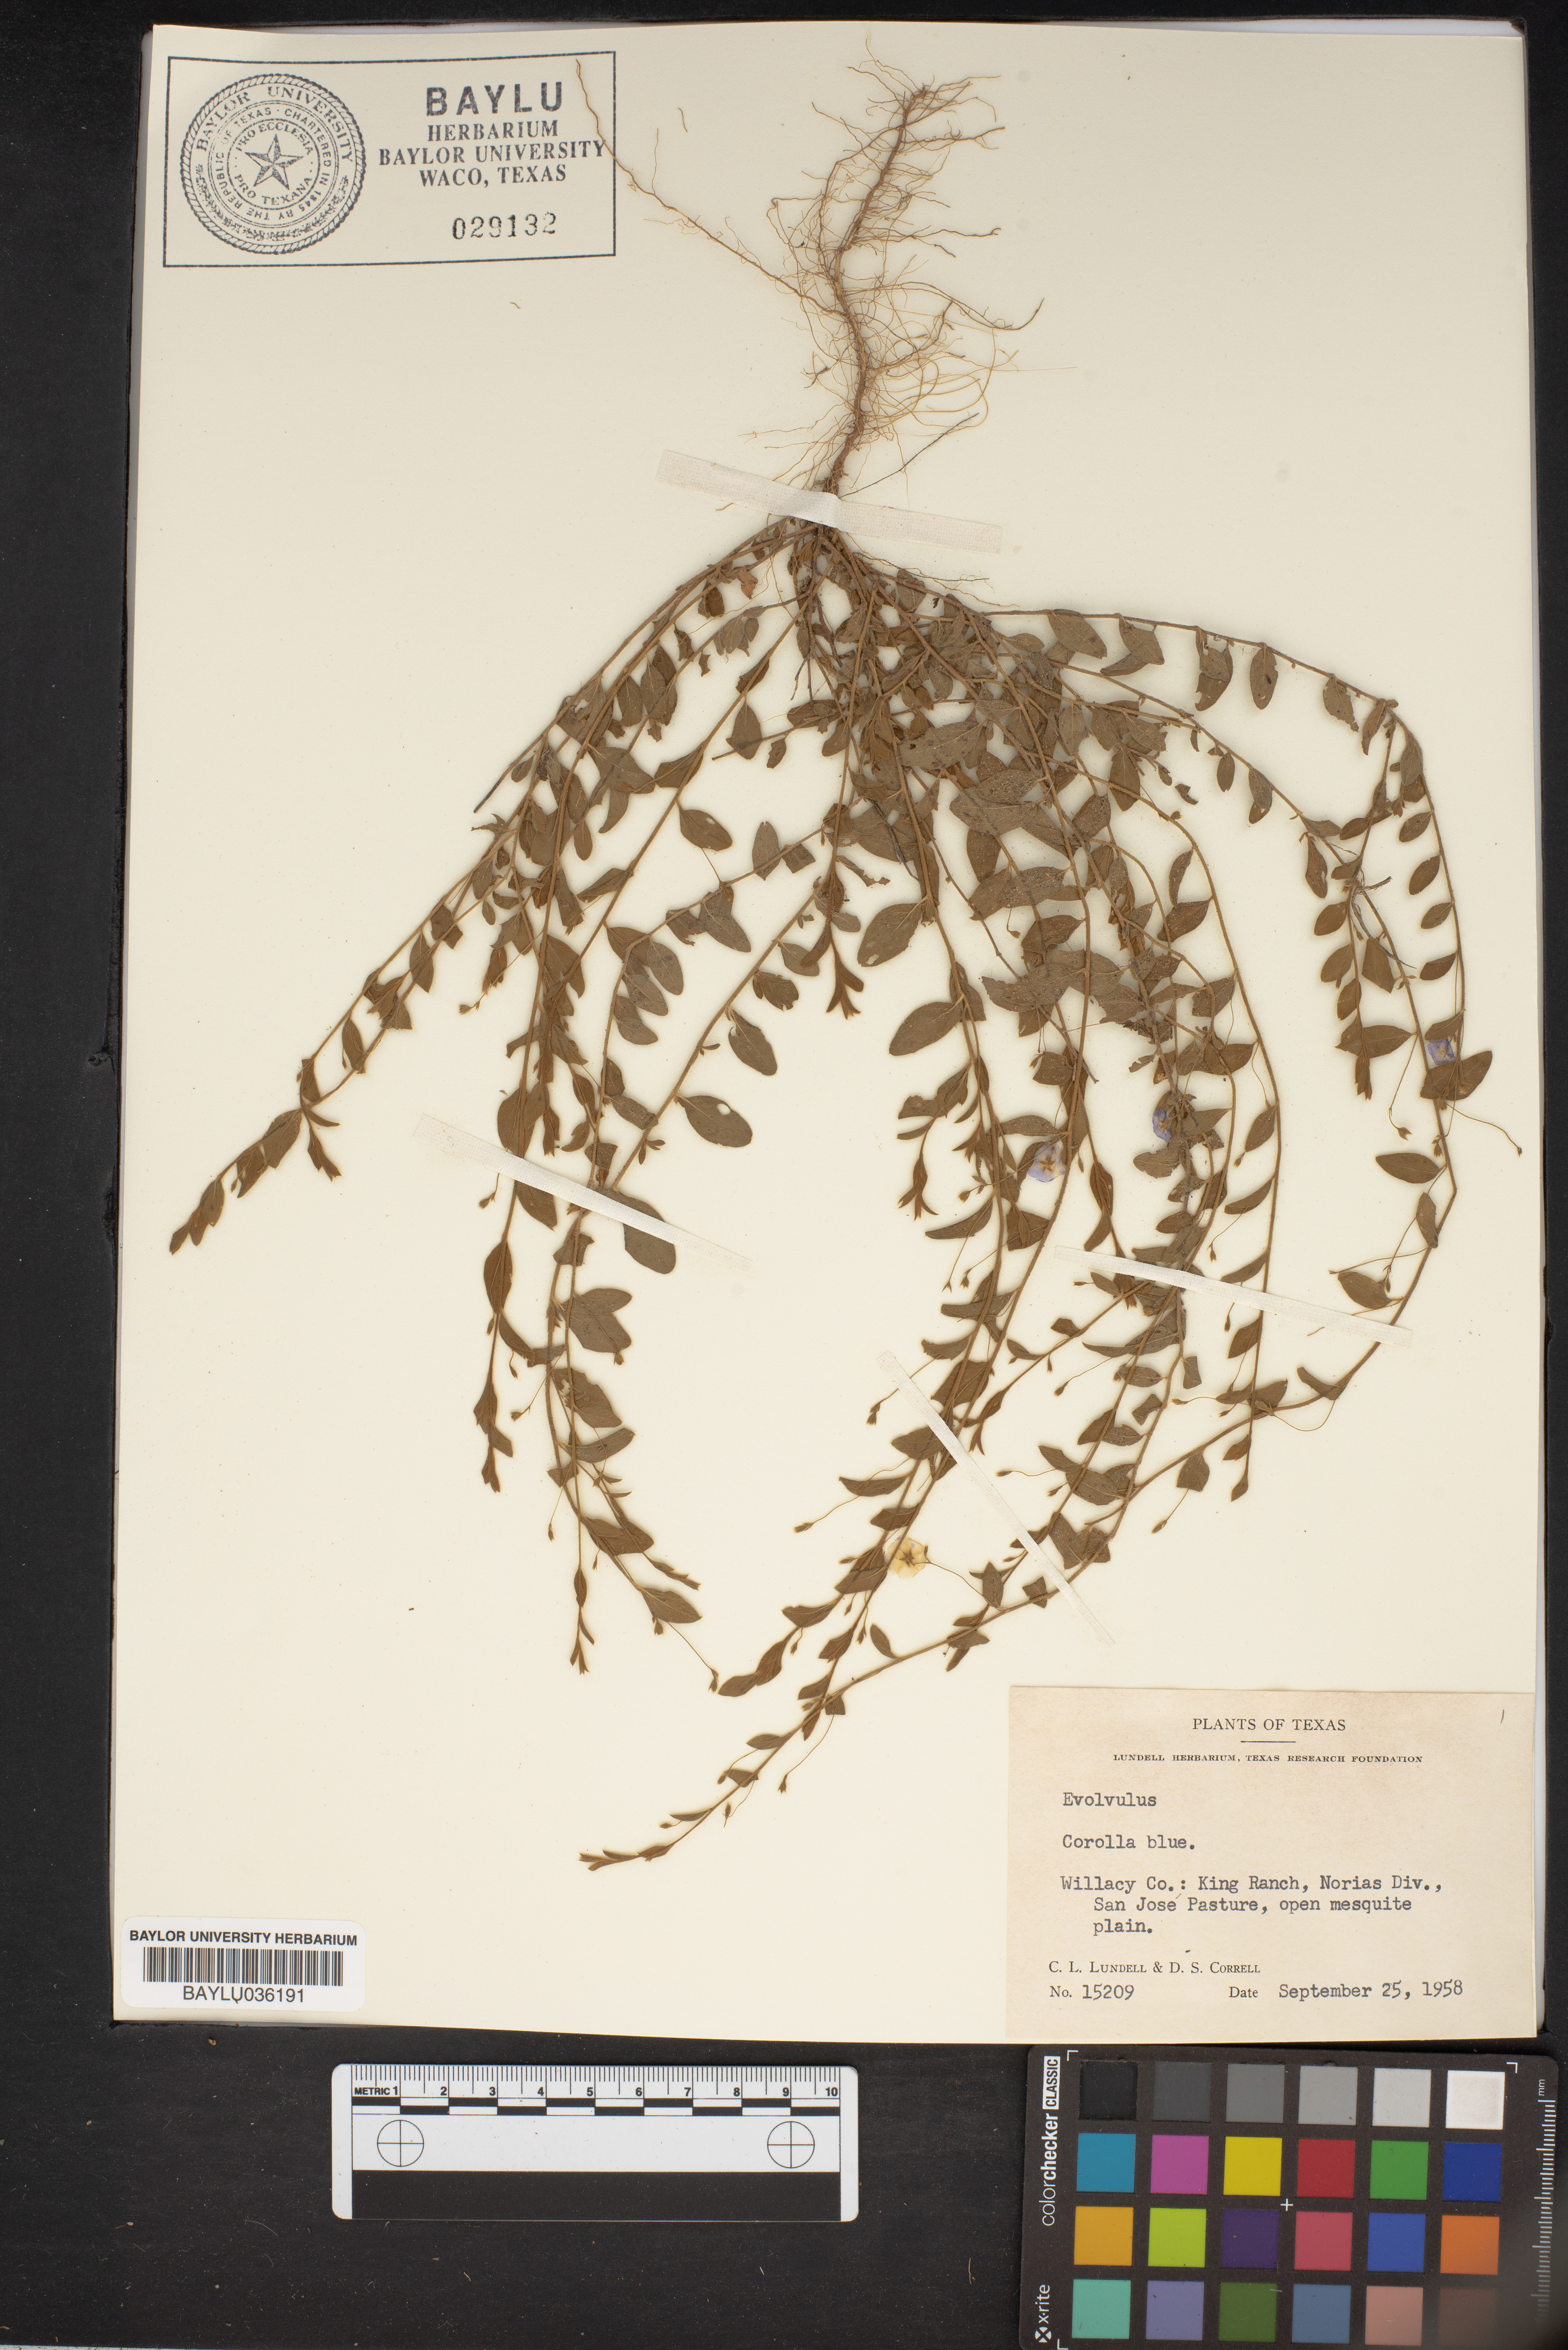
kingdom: Plantae
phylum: Tracheophyta
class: Magnoliopsida
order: Solanales
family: Convolvulaceae
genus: Evolvulus
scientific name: Evolvulus
